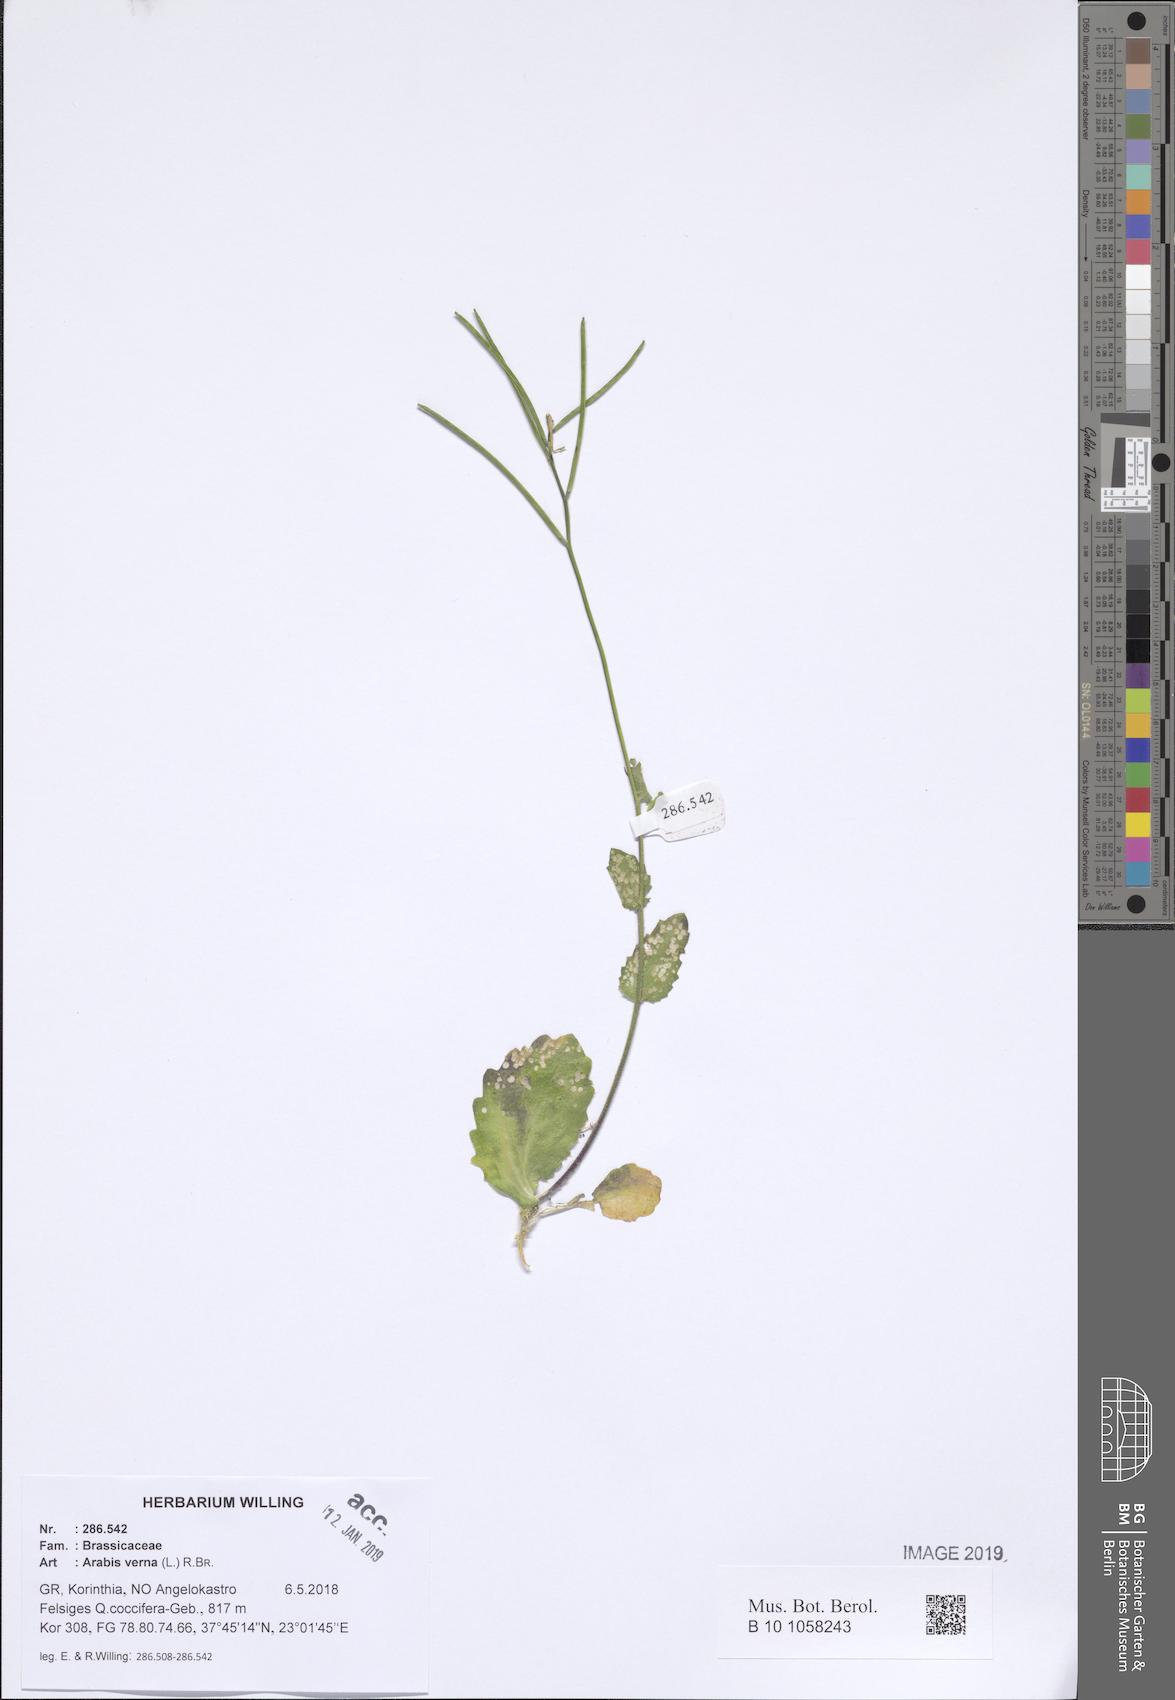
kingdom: Plantae
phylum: Tracheophyta
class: Magnoliopsida
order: Brassicales
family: Brassicaceae
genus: Arabis
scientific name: Arabis verna
